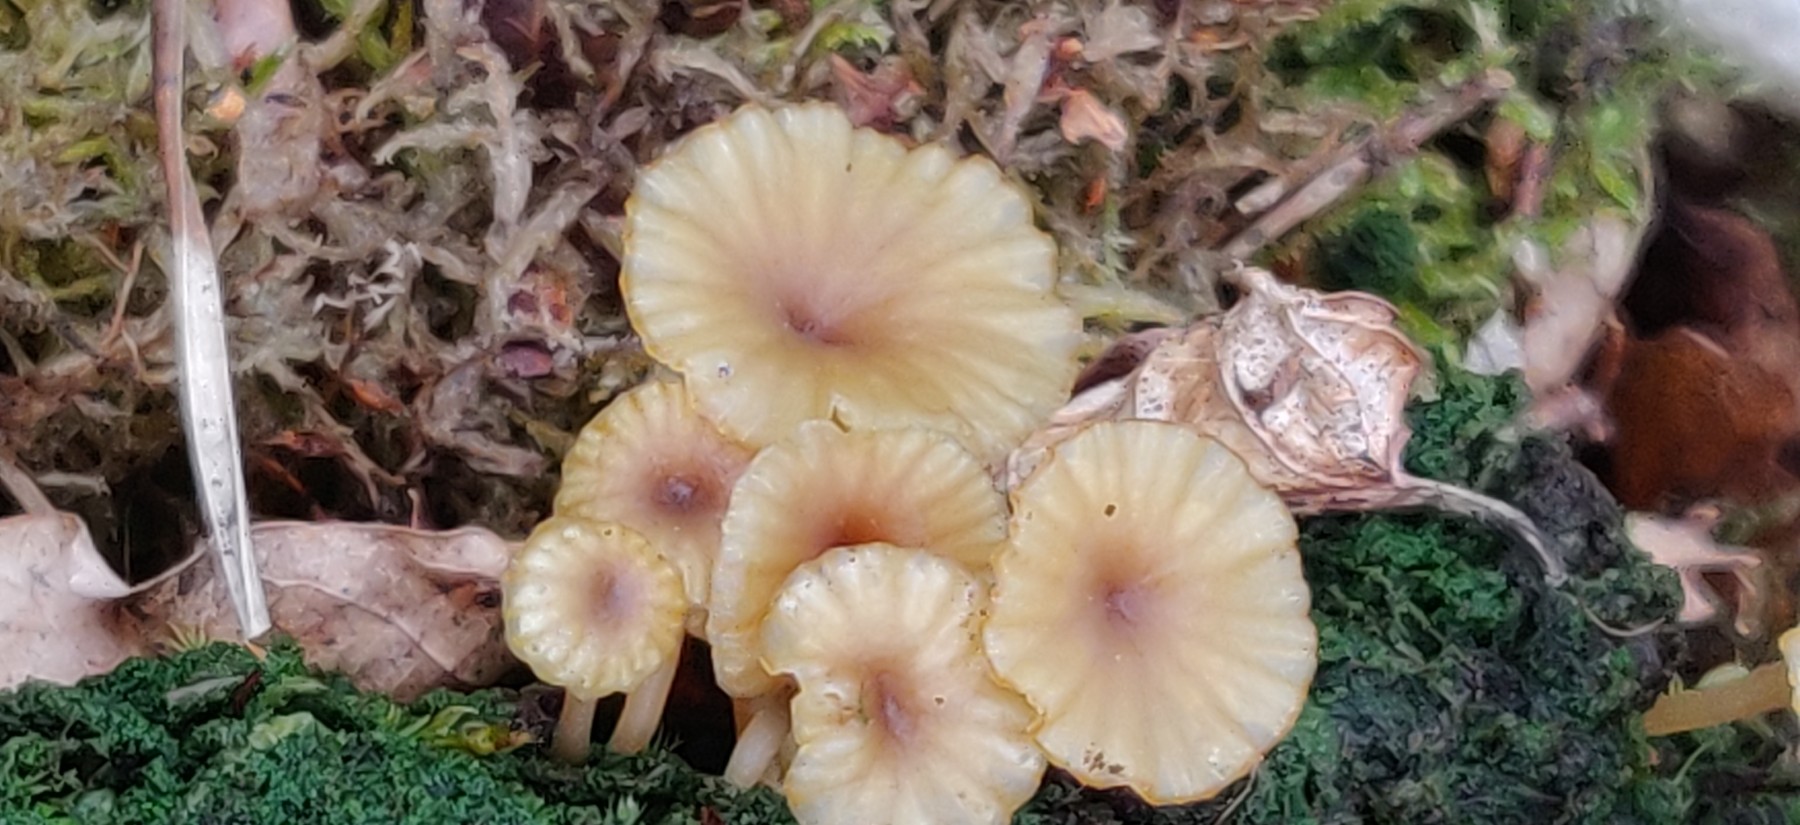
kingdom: Fungi
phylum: Basidiomycota
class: Agaricomycetes
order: Agaricales
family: Hygrophoraceae
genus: Lichenomphalia
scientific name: Lichenomphalia umbellifera
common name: tørve-lavhat
